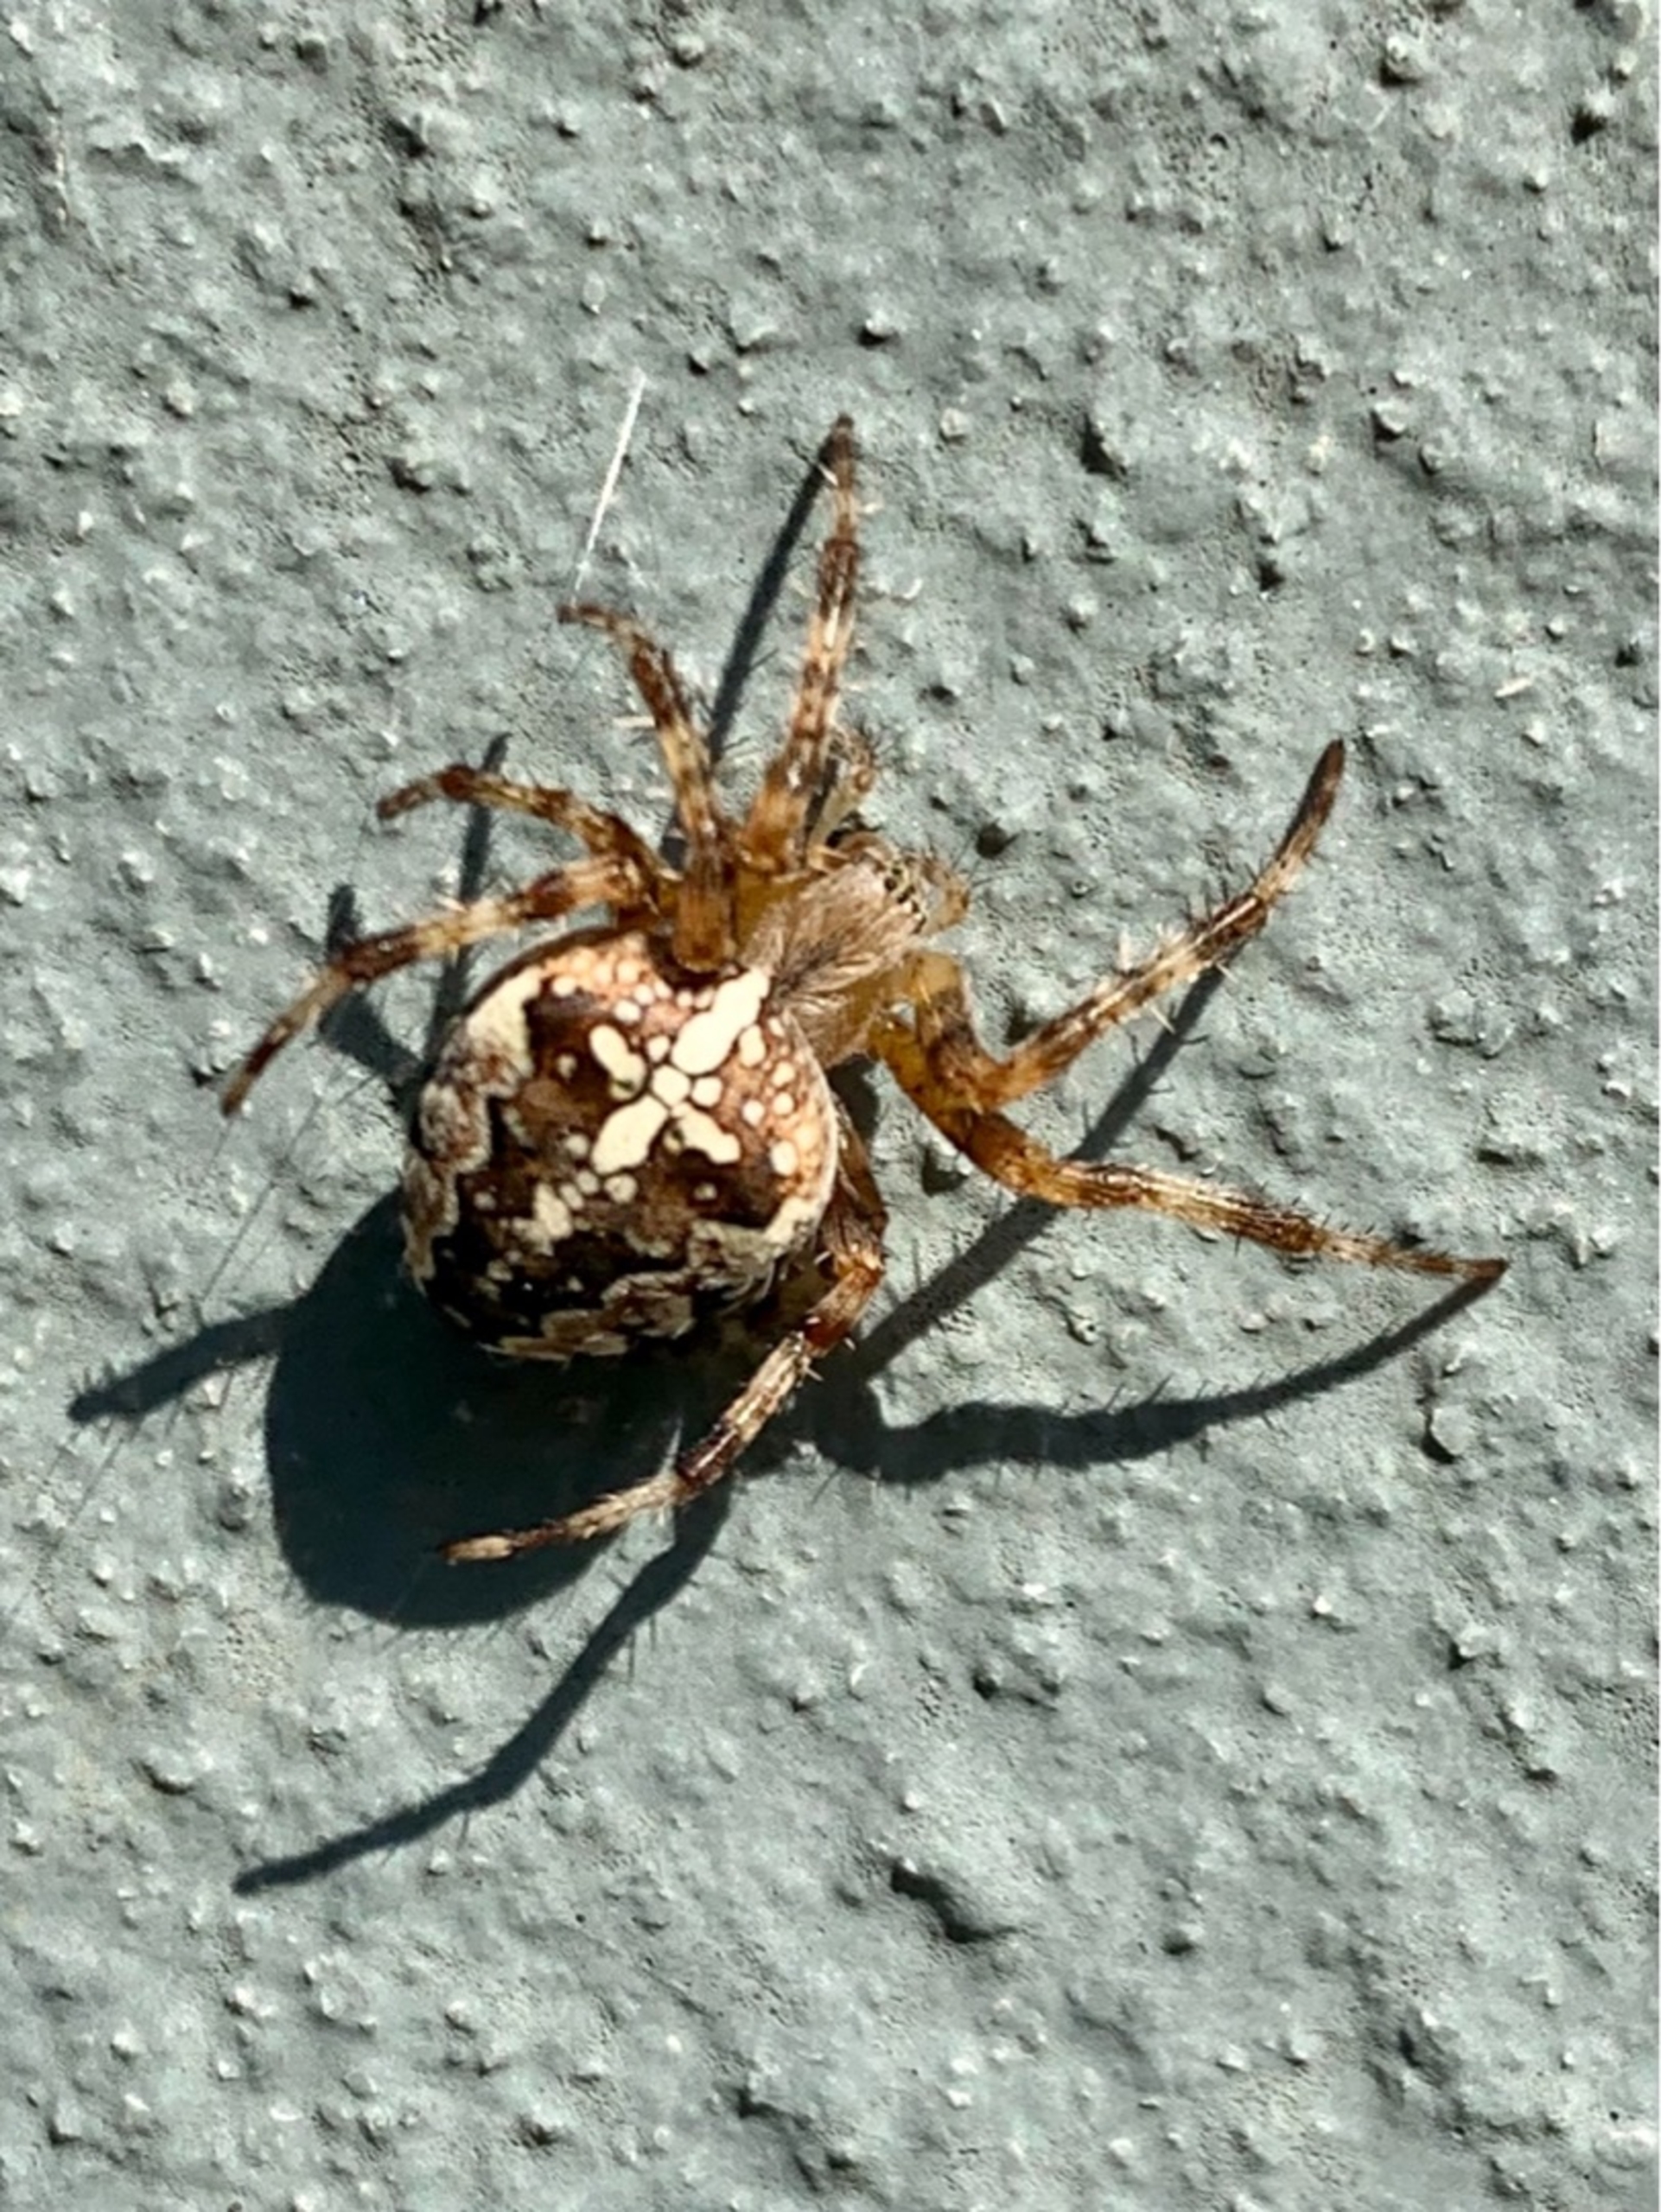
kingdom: Animalia
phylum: Arthropoda
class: Arachnida
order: Araneae
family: Araneidae
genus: Araneus
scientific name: Araneus diadematus
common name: Korsedderkop
